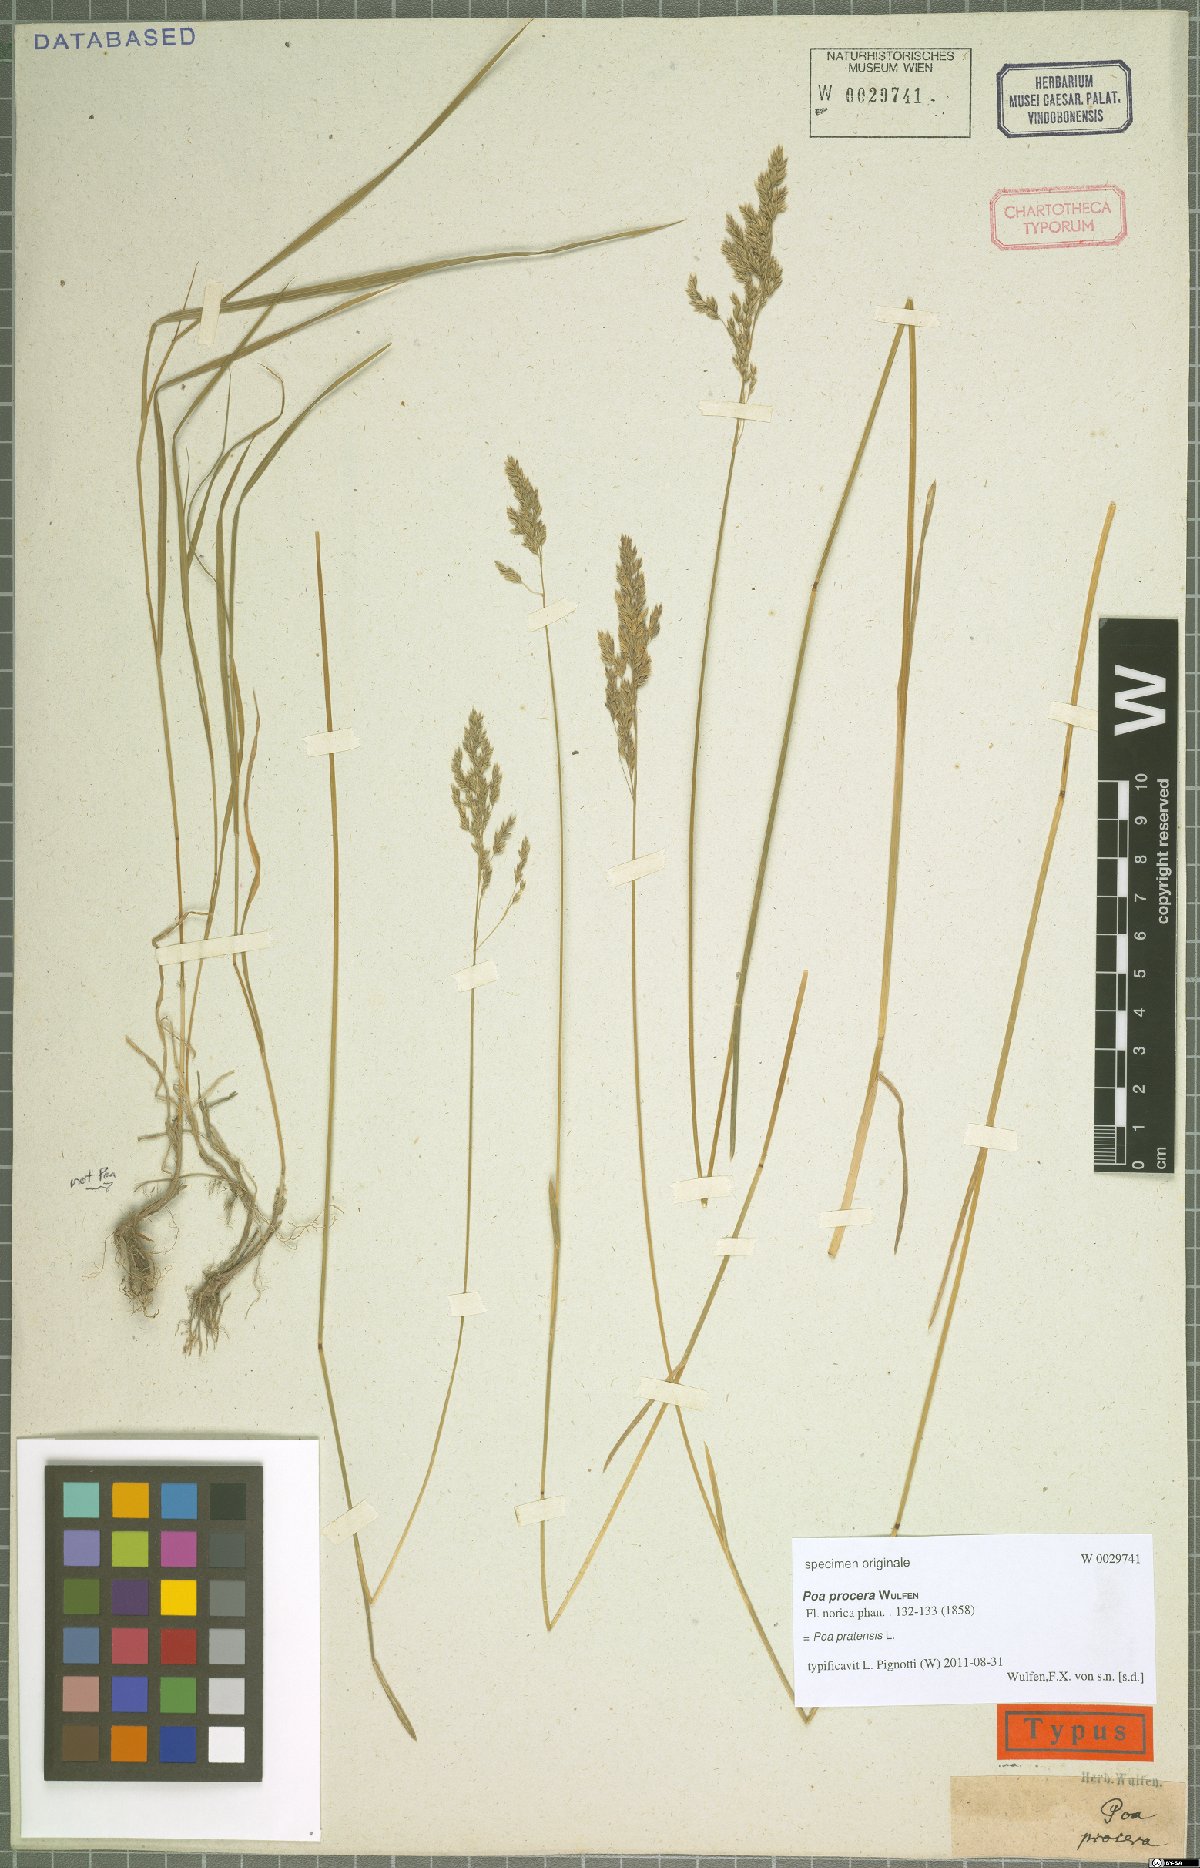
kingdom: Plantae
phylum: Tracheophyta
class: Liliopsida
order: Poales
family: Poaceae
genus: Poa
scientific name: Poa pratensis
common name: Kentucky bluegrass
